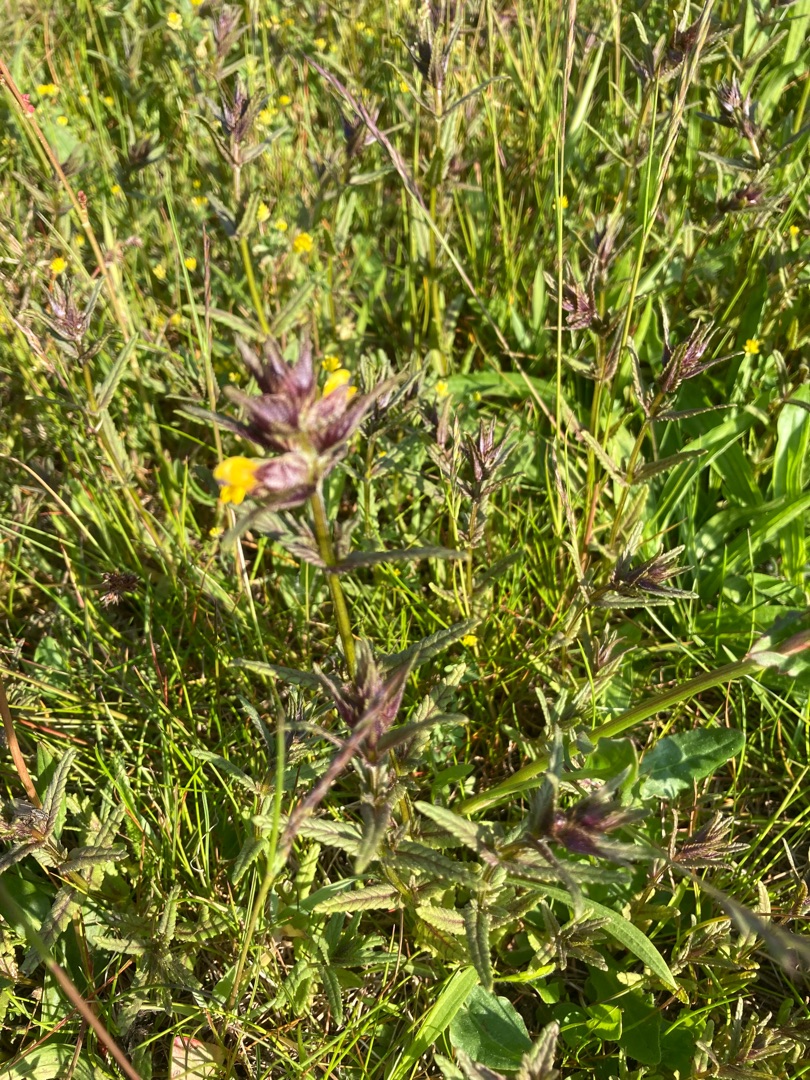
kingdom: Plantae
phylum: Tracheophyta
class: Magnoliopsida
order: Lamiales
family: Orobanchaceae
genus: Rhinanthus
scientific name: Rhinanthus minor
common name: Liden skjaller
